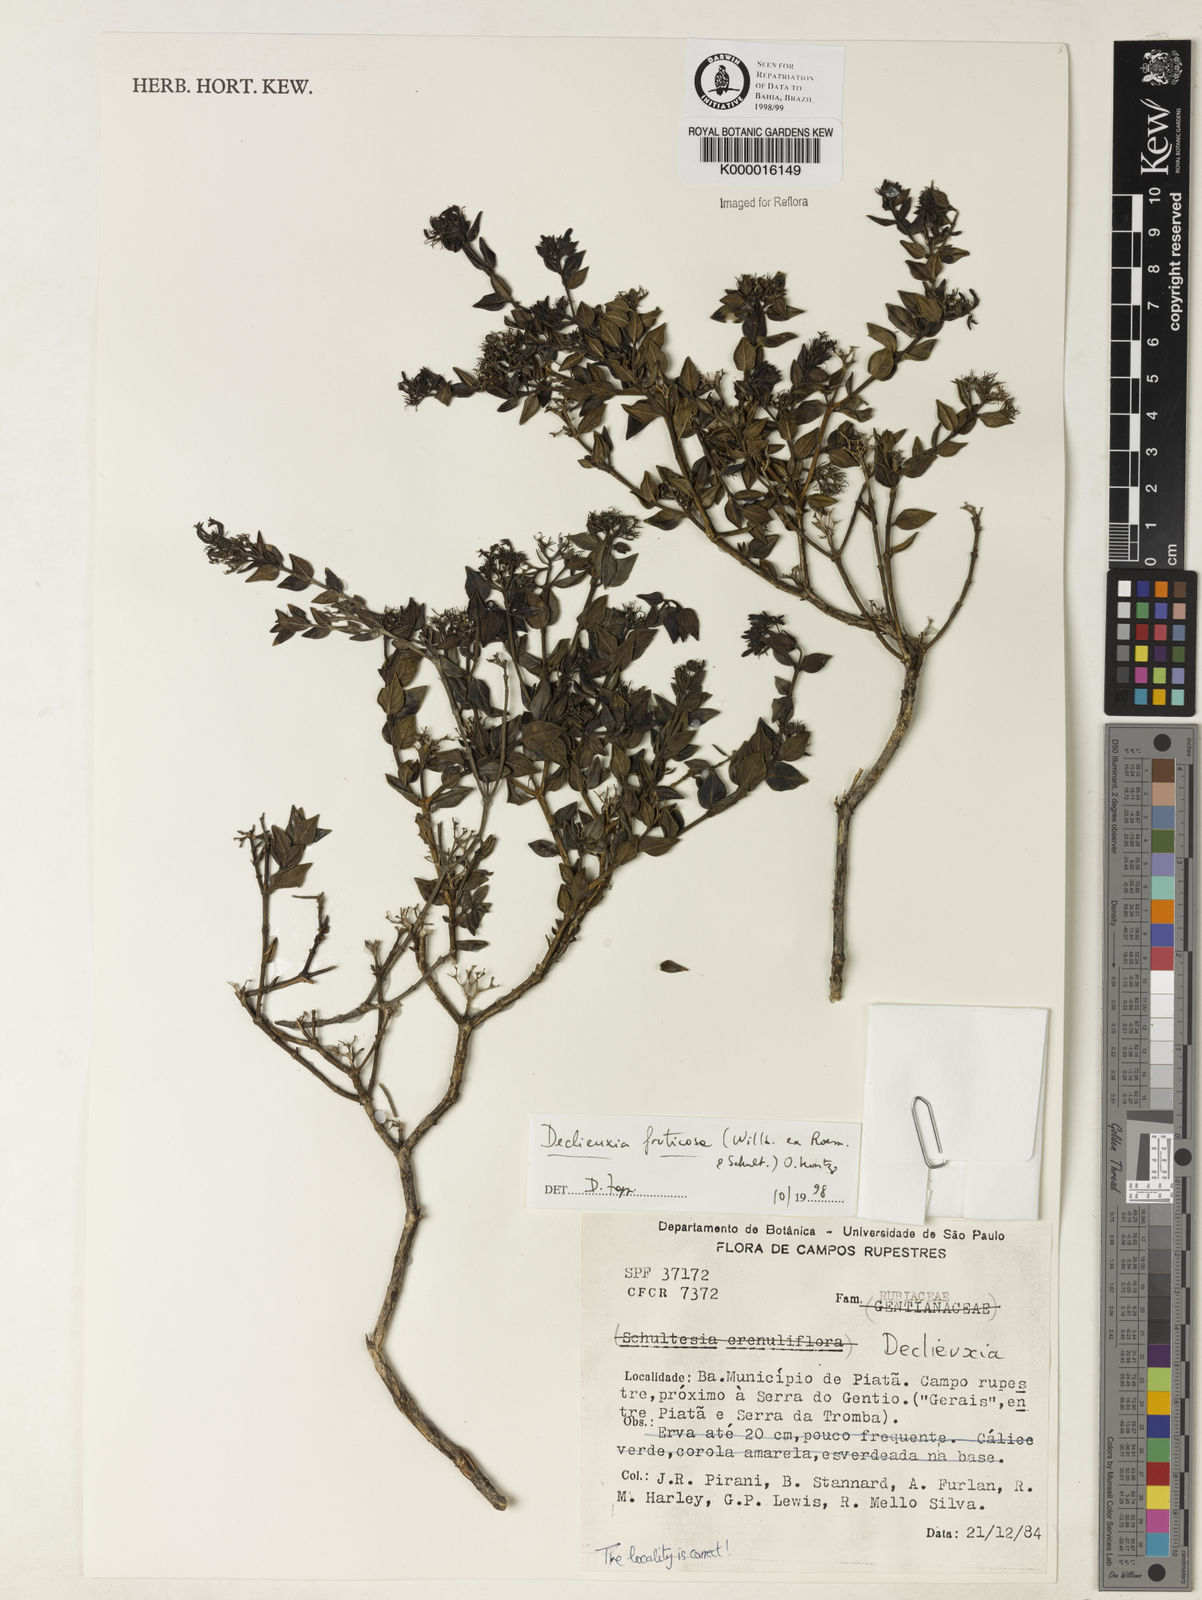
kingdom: Plantae
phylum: Tracheophyta
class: Magnoliopsida
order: Gentianales
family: Rubiaceae
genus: Declieuxia
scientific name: Declieuxia fruticosa
